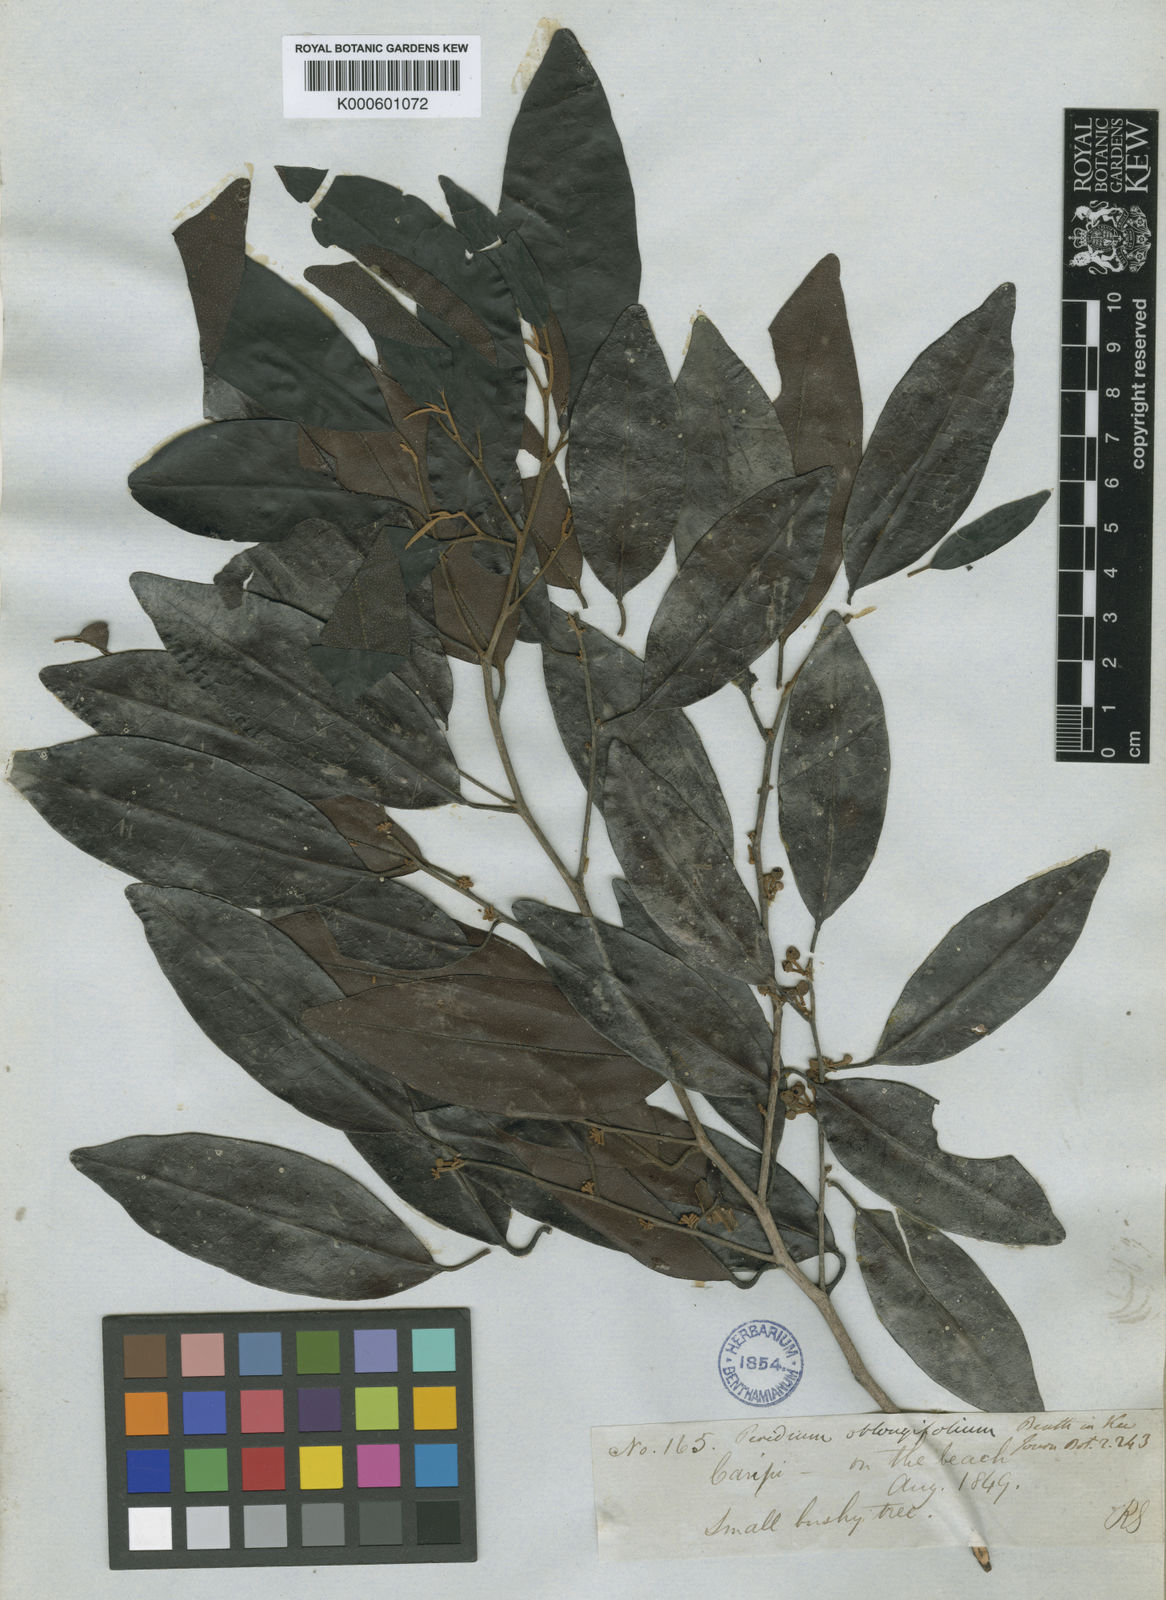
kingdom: Plantae
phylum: Tracheophyta
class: Magnoliopsida
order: Malpighiales
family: Peraceae
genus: Pera
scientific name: Pera
